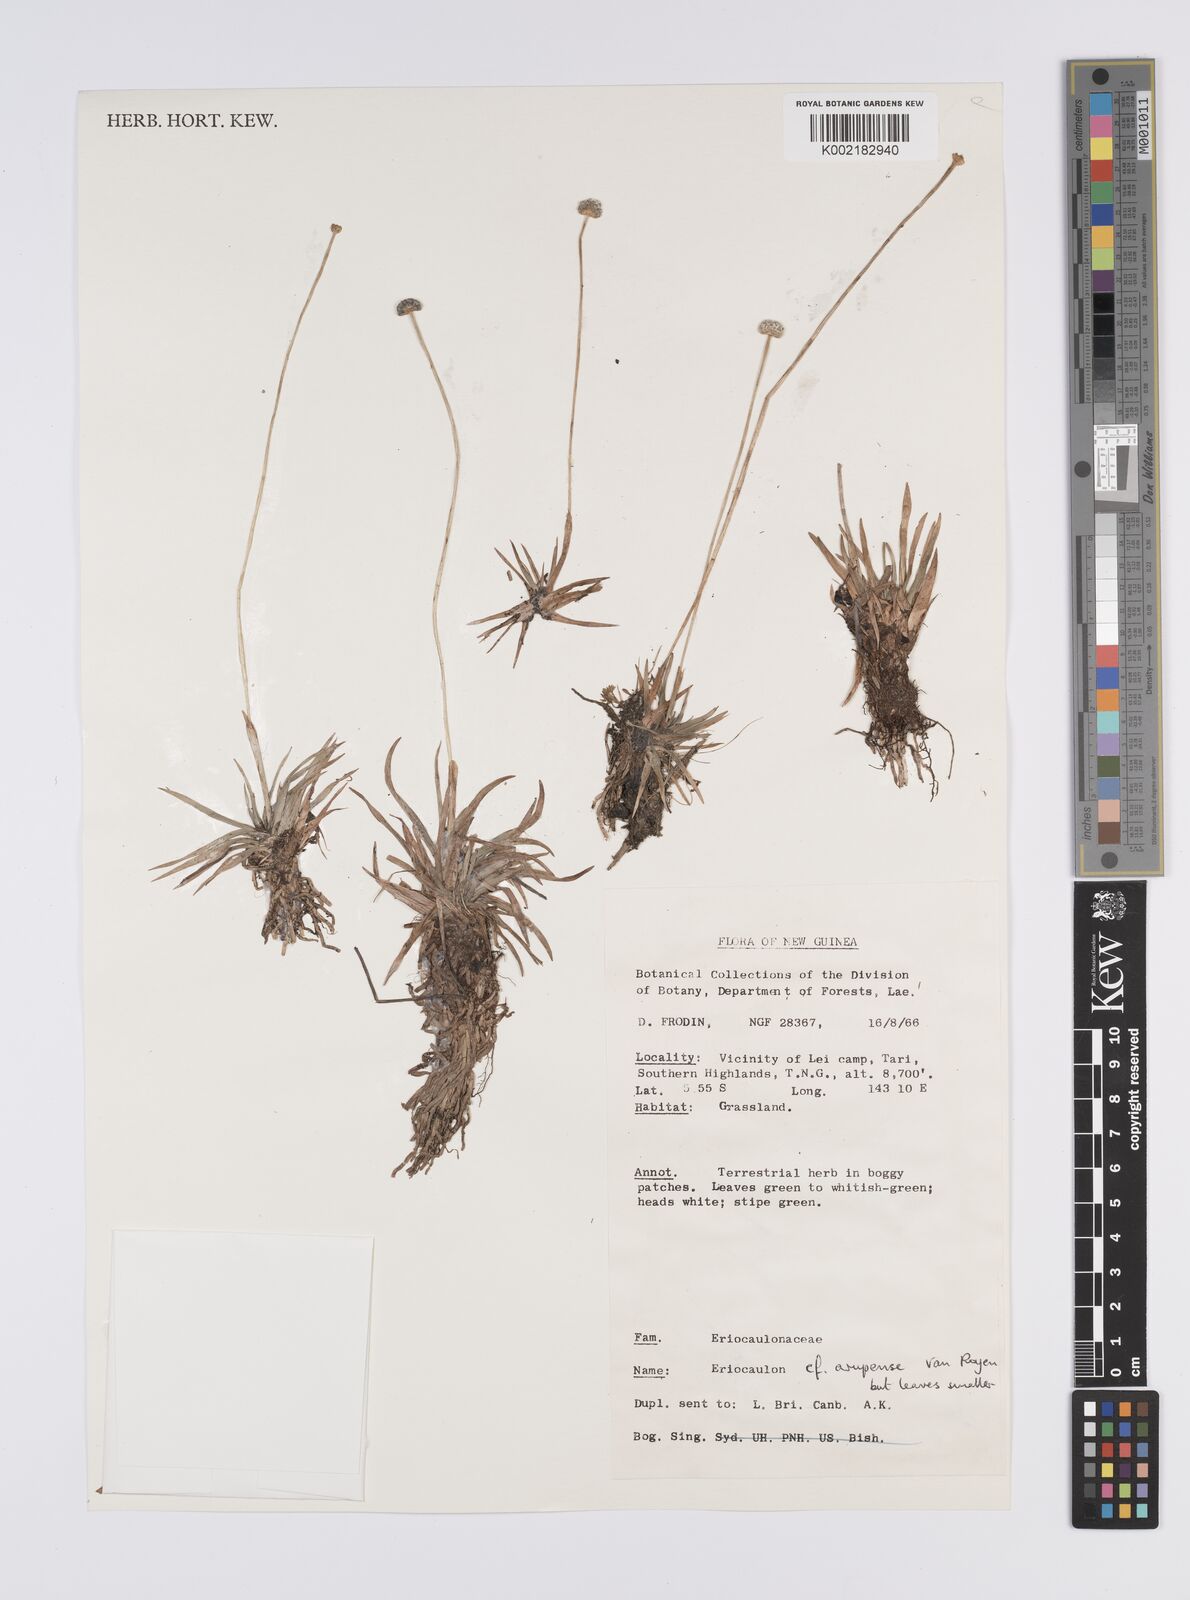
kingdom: Plantae
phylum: Tracheophyta
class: Liliopsida
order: Poales
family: Eriocaulaceae
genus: Eriocaulon
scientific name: Eriocaulon arupense
